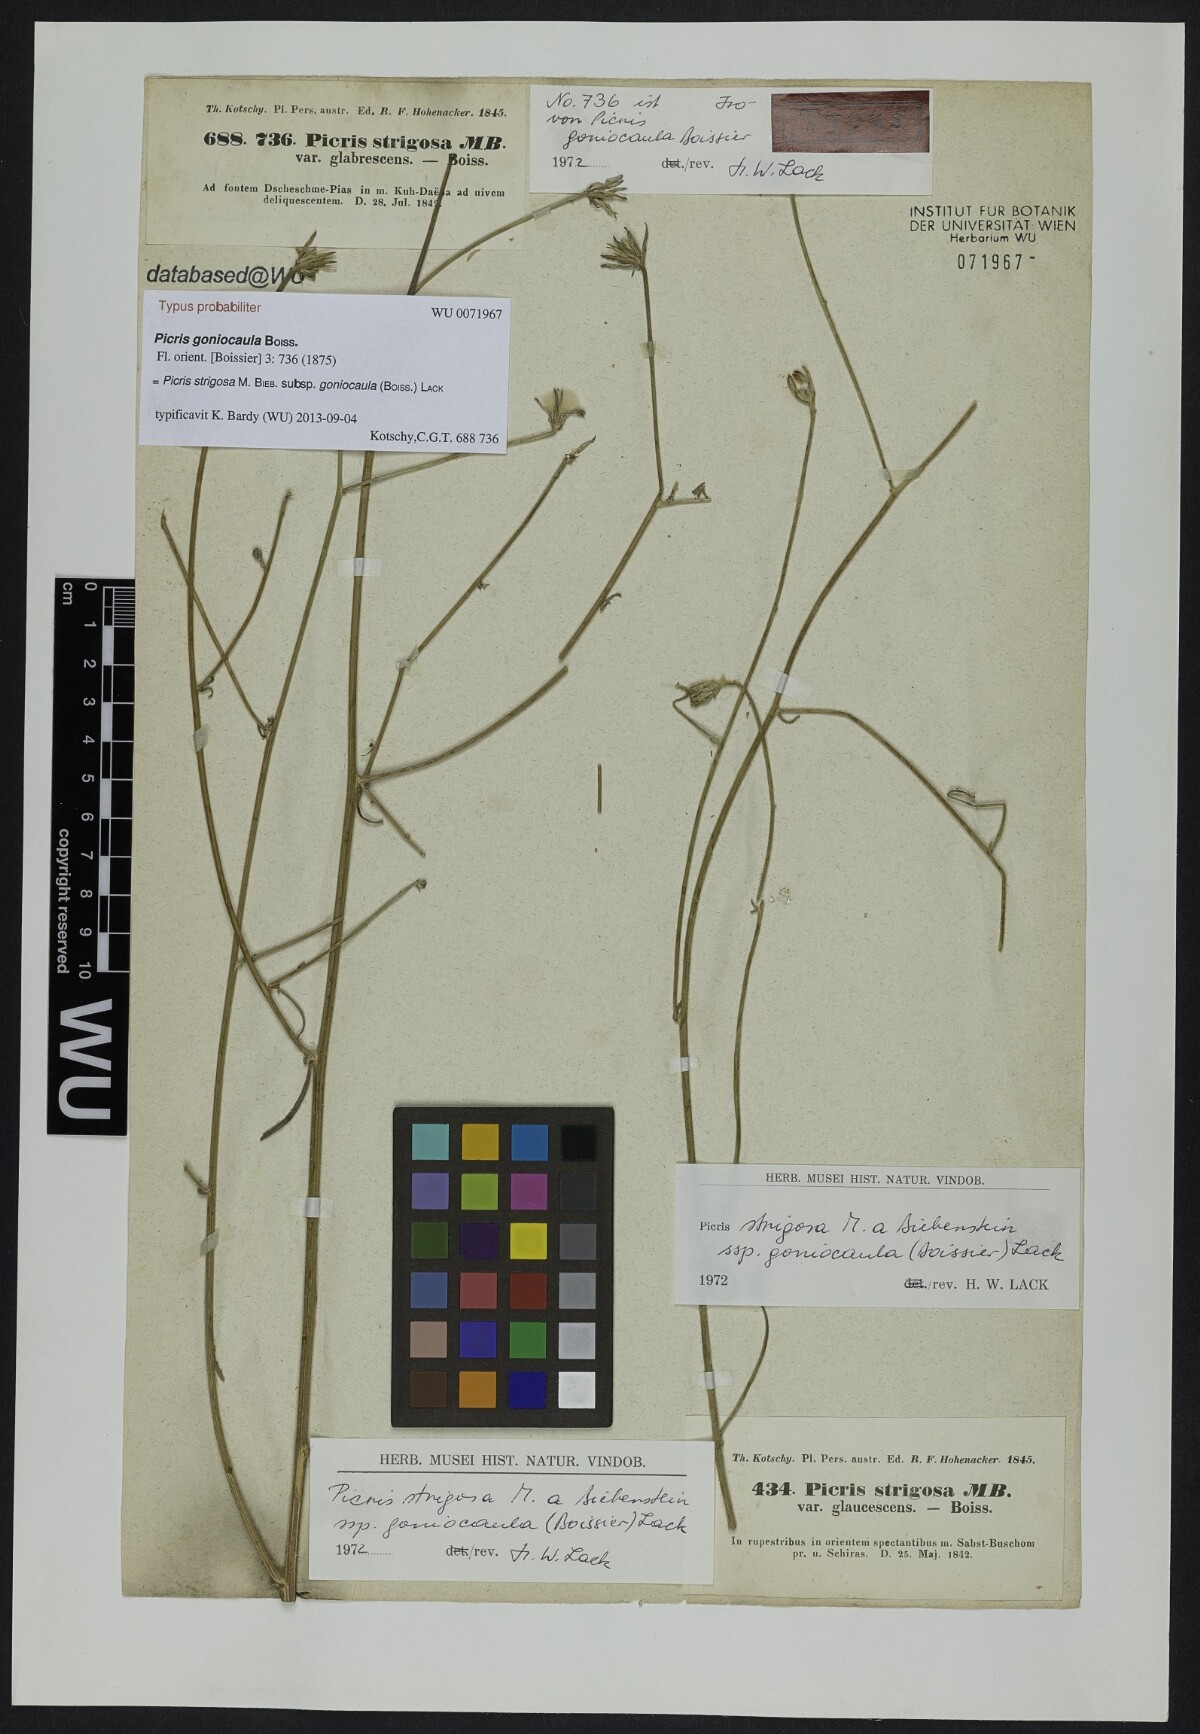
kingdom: Plantae
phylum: Tracheophyta
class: Magnoliopsida
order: Asterales
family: Asteraceae
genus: Picris
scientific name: Picris strigosa
